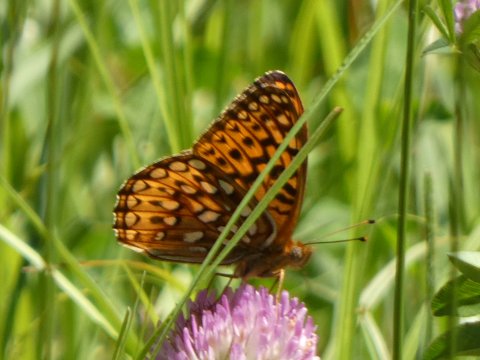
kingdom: Animalia
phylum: Arthropoda
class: Insecta
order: Lepidoptera
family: Nymphalidae
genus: Speyeria
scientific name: Speyeria atlantis
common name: Atlantis Fritillary
